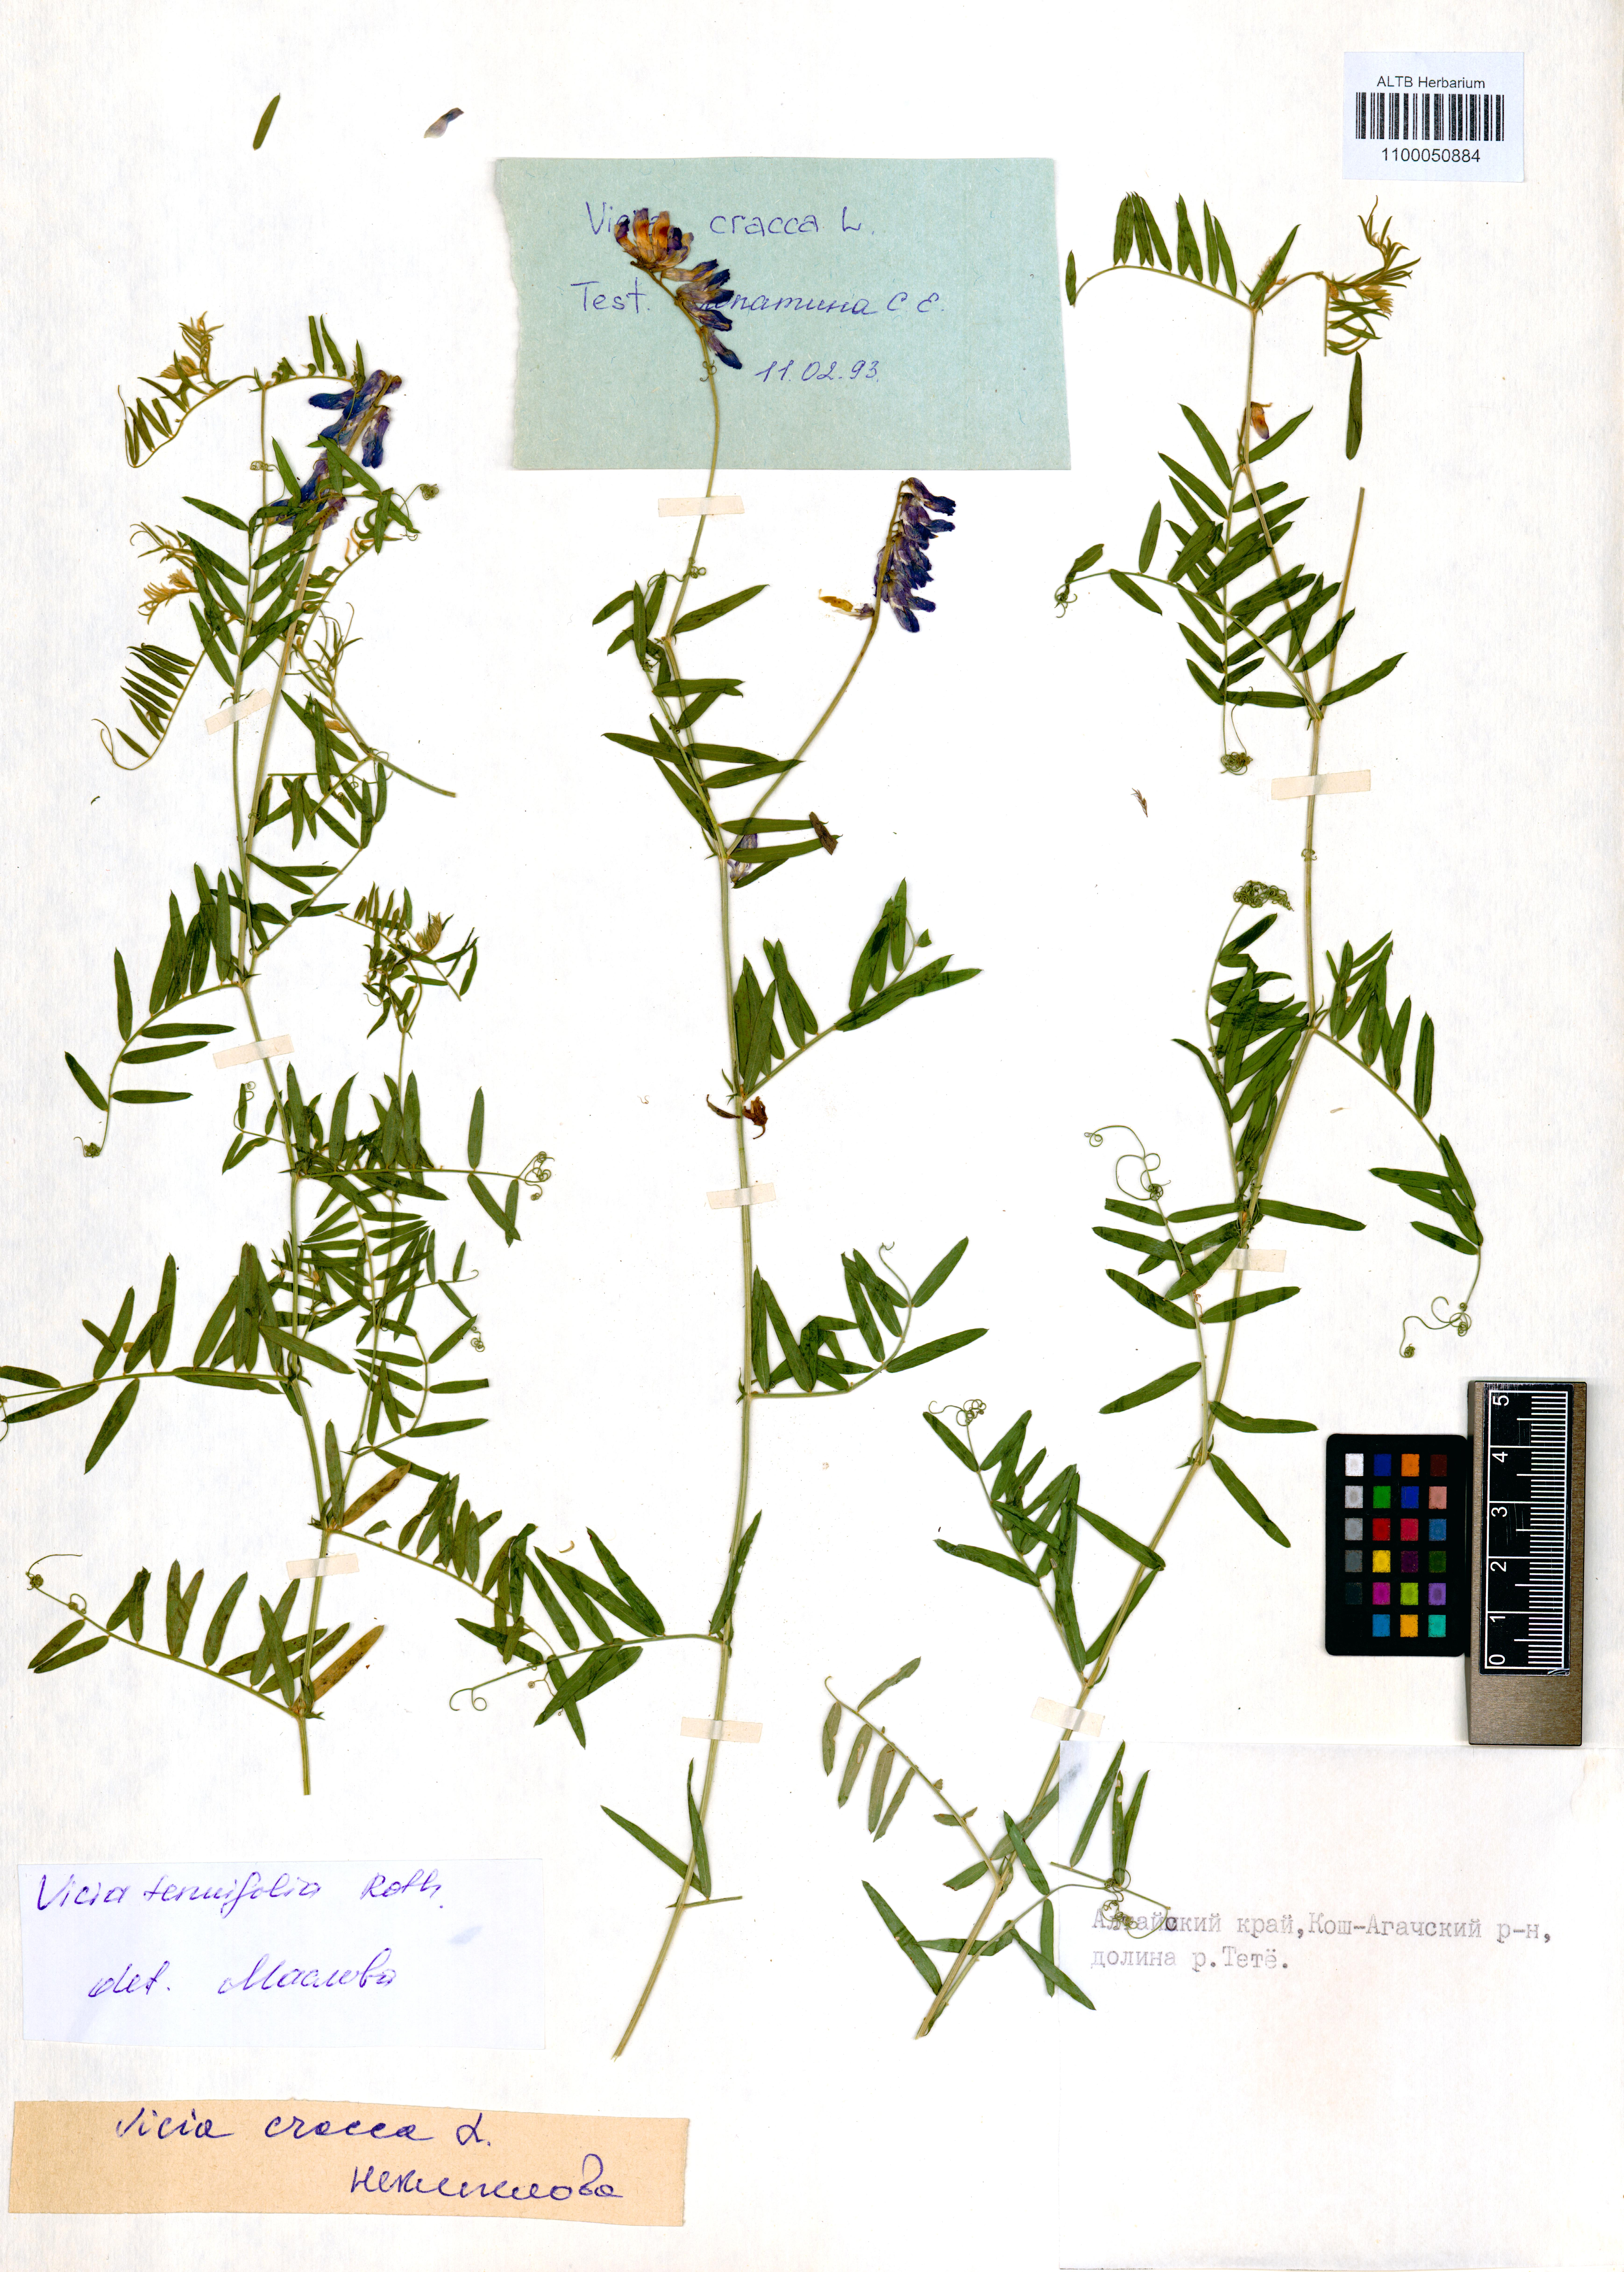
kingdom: Plantae
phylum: Tracheophyta
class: Magnoliopsida
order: Fabales
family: Fabaceae
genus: Vicia
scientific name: Vicia cracca
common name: Bird vetch
